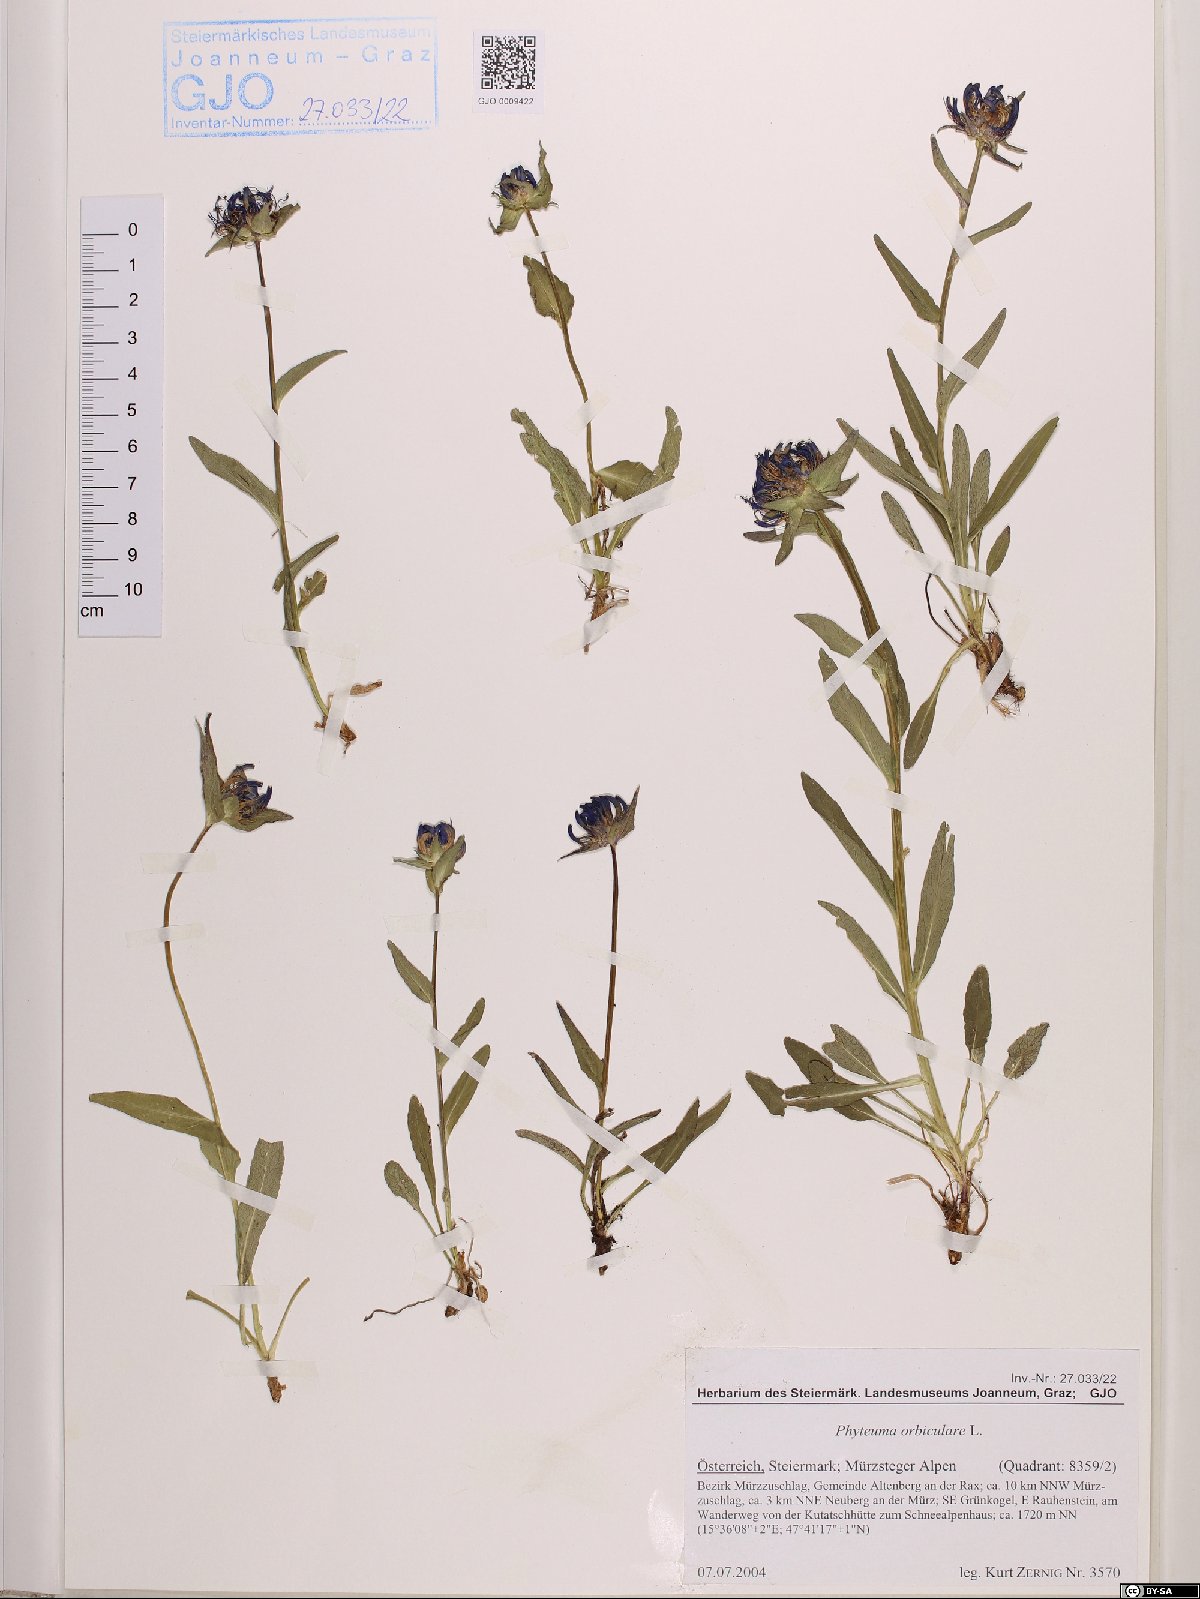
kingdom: Plantae
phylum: Tracheophyta
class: Magnoliopsida
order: Asterales
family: Campanulaceae
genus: Phyteuma
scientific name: Phyteuma orbiculare
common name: Round-headed rampion
